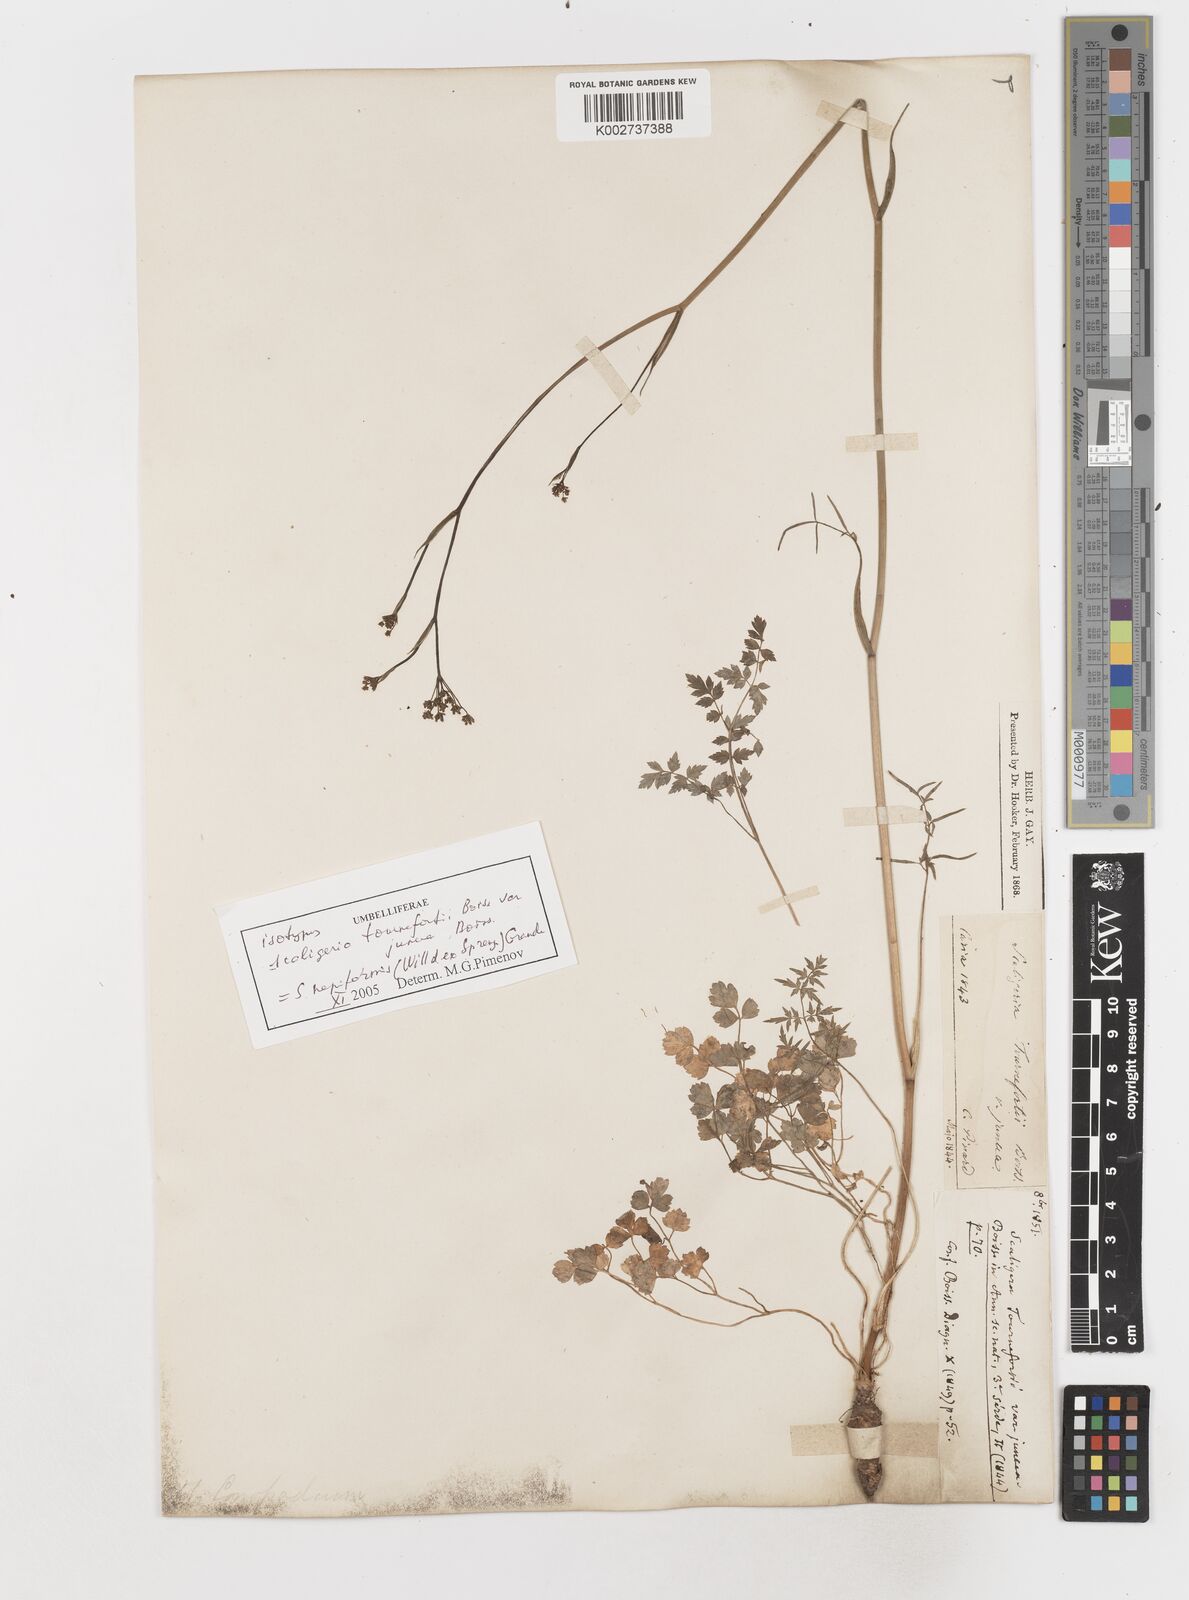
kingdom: Plantae
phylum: Tracheophyta
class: Magnoliopsida
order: Apiales
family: Apiaceae
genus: Scaligeria
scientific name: Scaligeria
